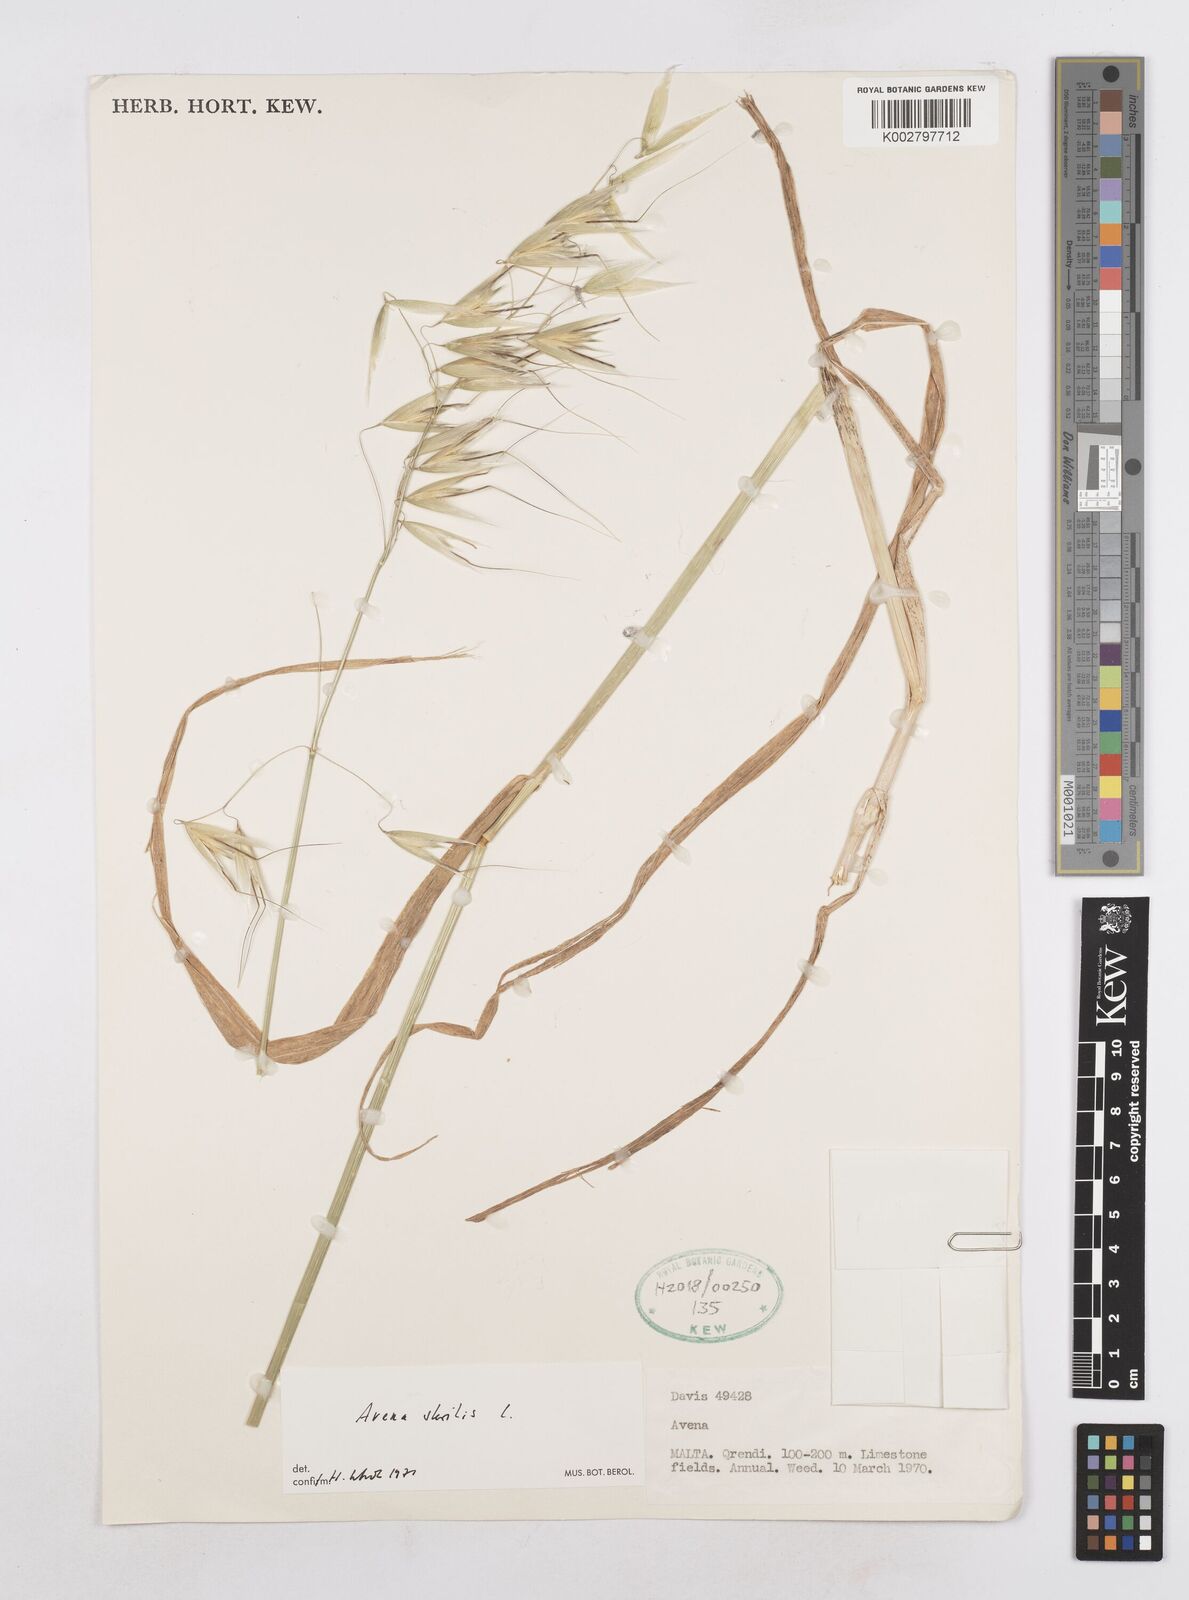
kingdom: Plantae
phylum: Tracheophyta
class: Liliopsida
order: Poales
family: Poaceae
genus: Avena
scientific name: Avena sterilis
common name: Animated oat
